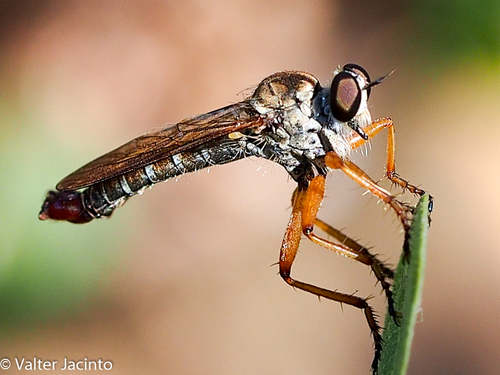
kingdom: Animalia
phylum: Arthropoda
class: Insecta
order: Diptera
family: Asilidae
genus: Aneomochtherus
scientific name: Aneomochtherus
